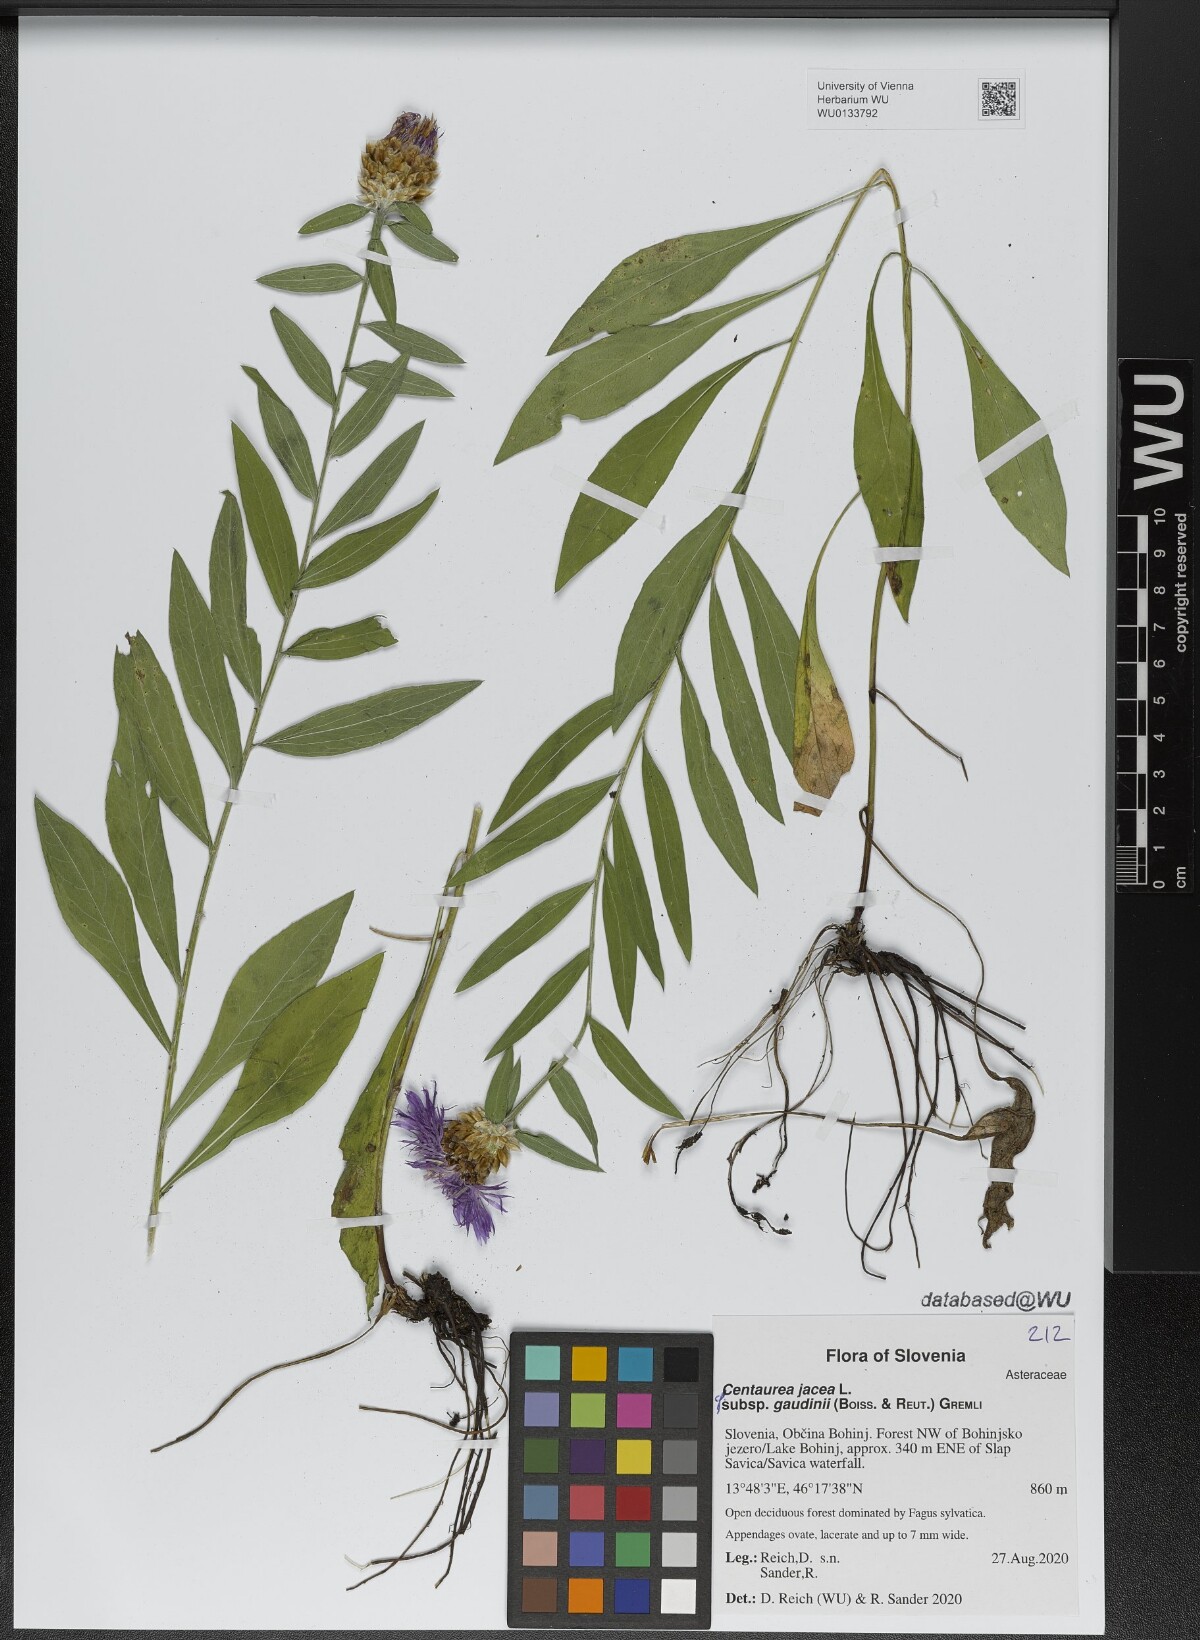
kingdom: Plantae
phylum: Tracheophyta
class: Magnoliopsida
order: Asterales
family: Asteraceae
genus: Centaurea
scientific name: Centaurea jacea
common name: Brown knapweed
